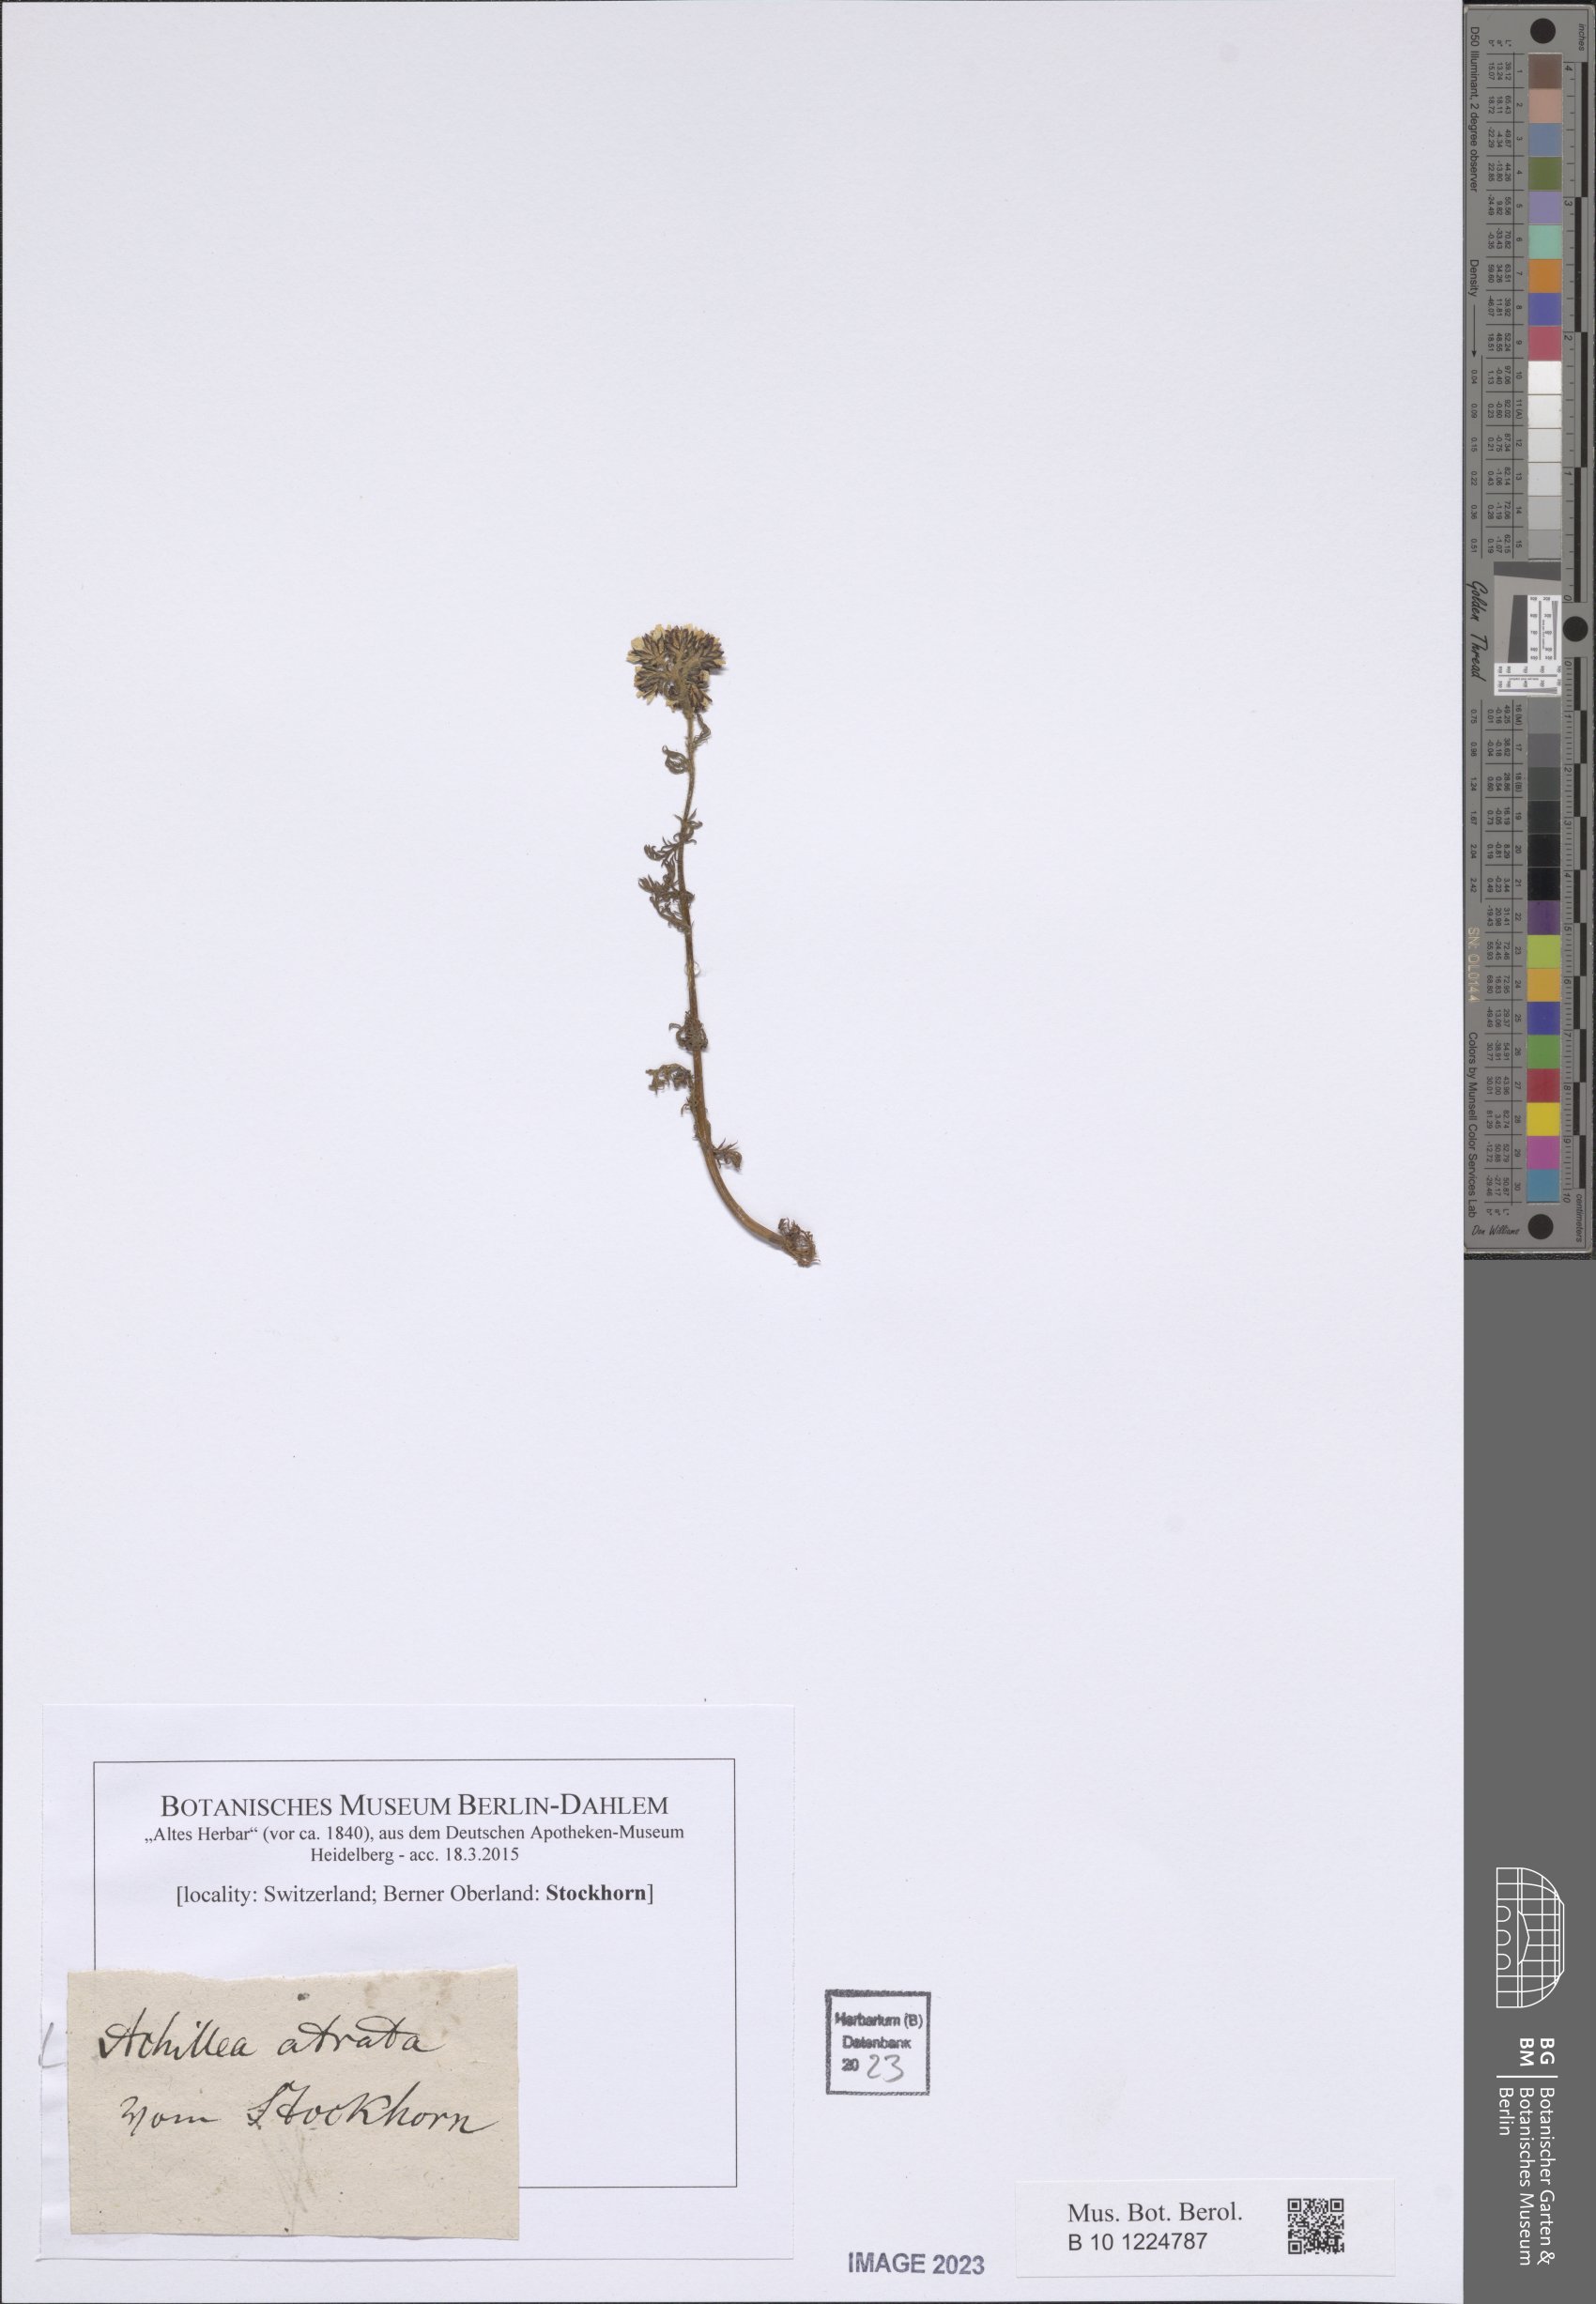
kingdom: Plantae
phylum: Tracheophyta
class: Magnoliopsida
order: Asterales
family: Asteraceae
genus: Achillea
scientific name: Achillea atrata
